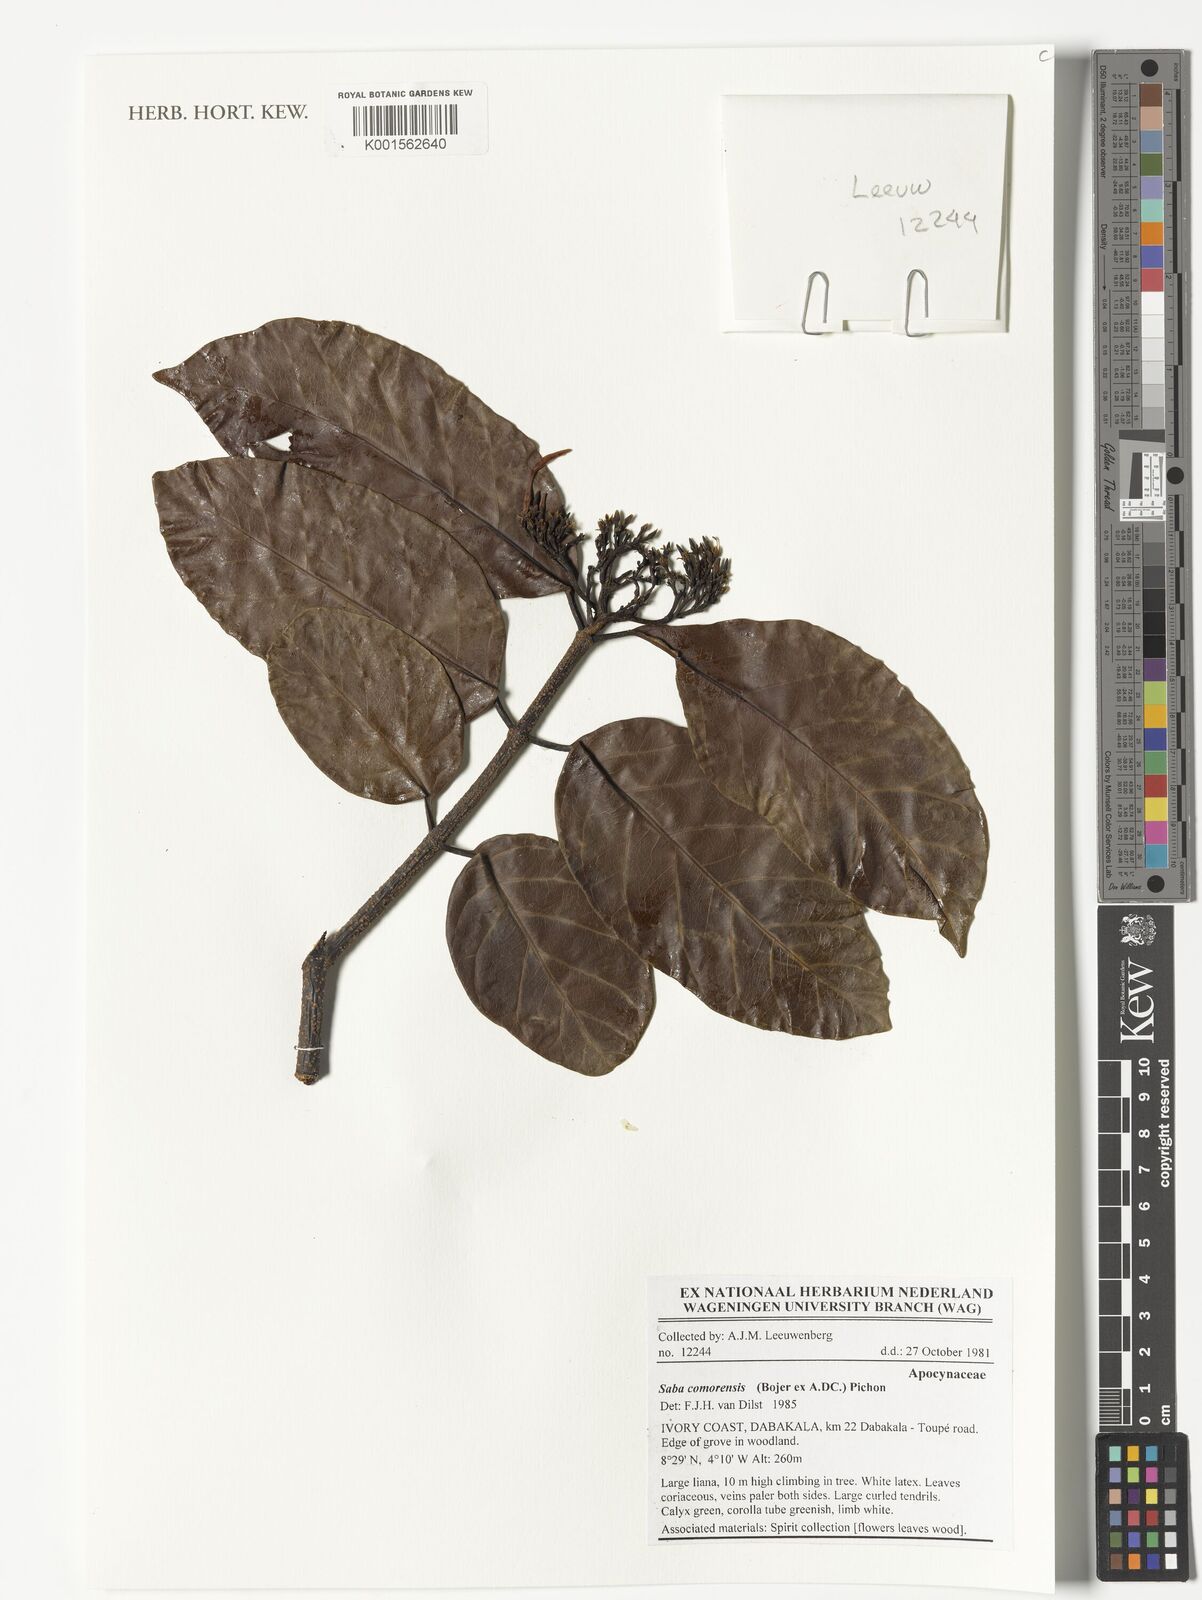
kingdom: Plantae
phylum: Tracheophyta
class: Magnoliopsida
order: Gentianales
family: Apocynaceae
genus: Saba
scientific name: Saba comorensis
